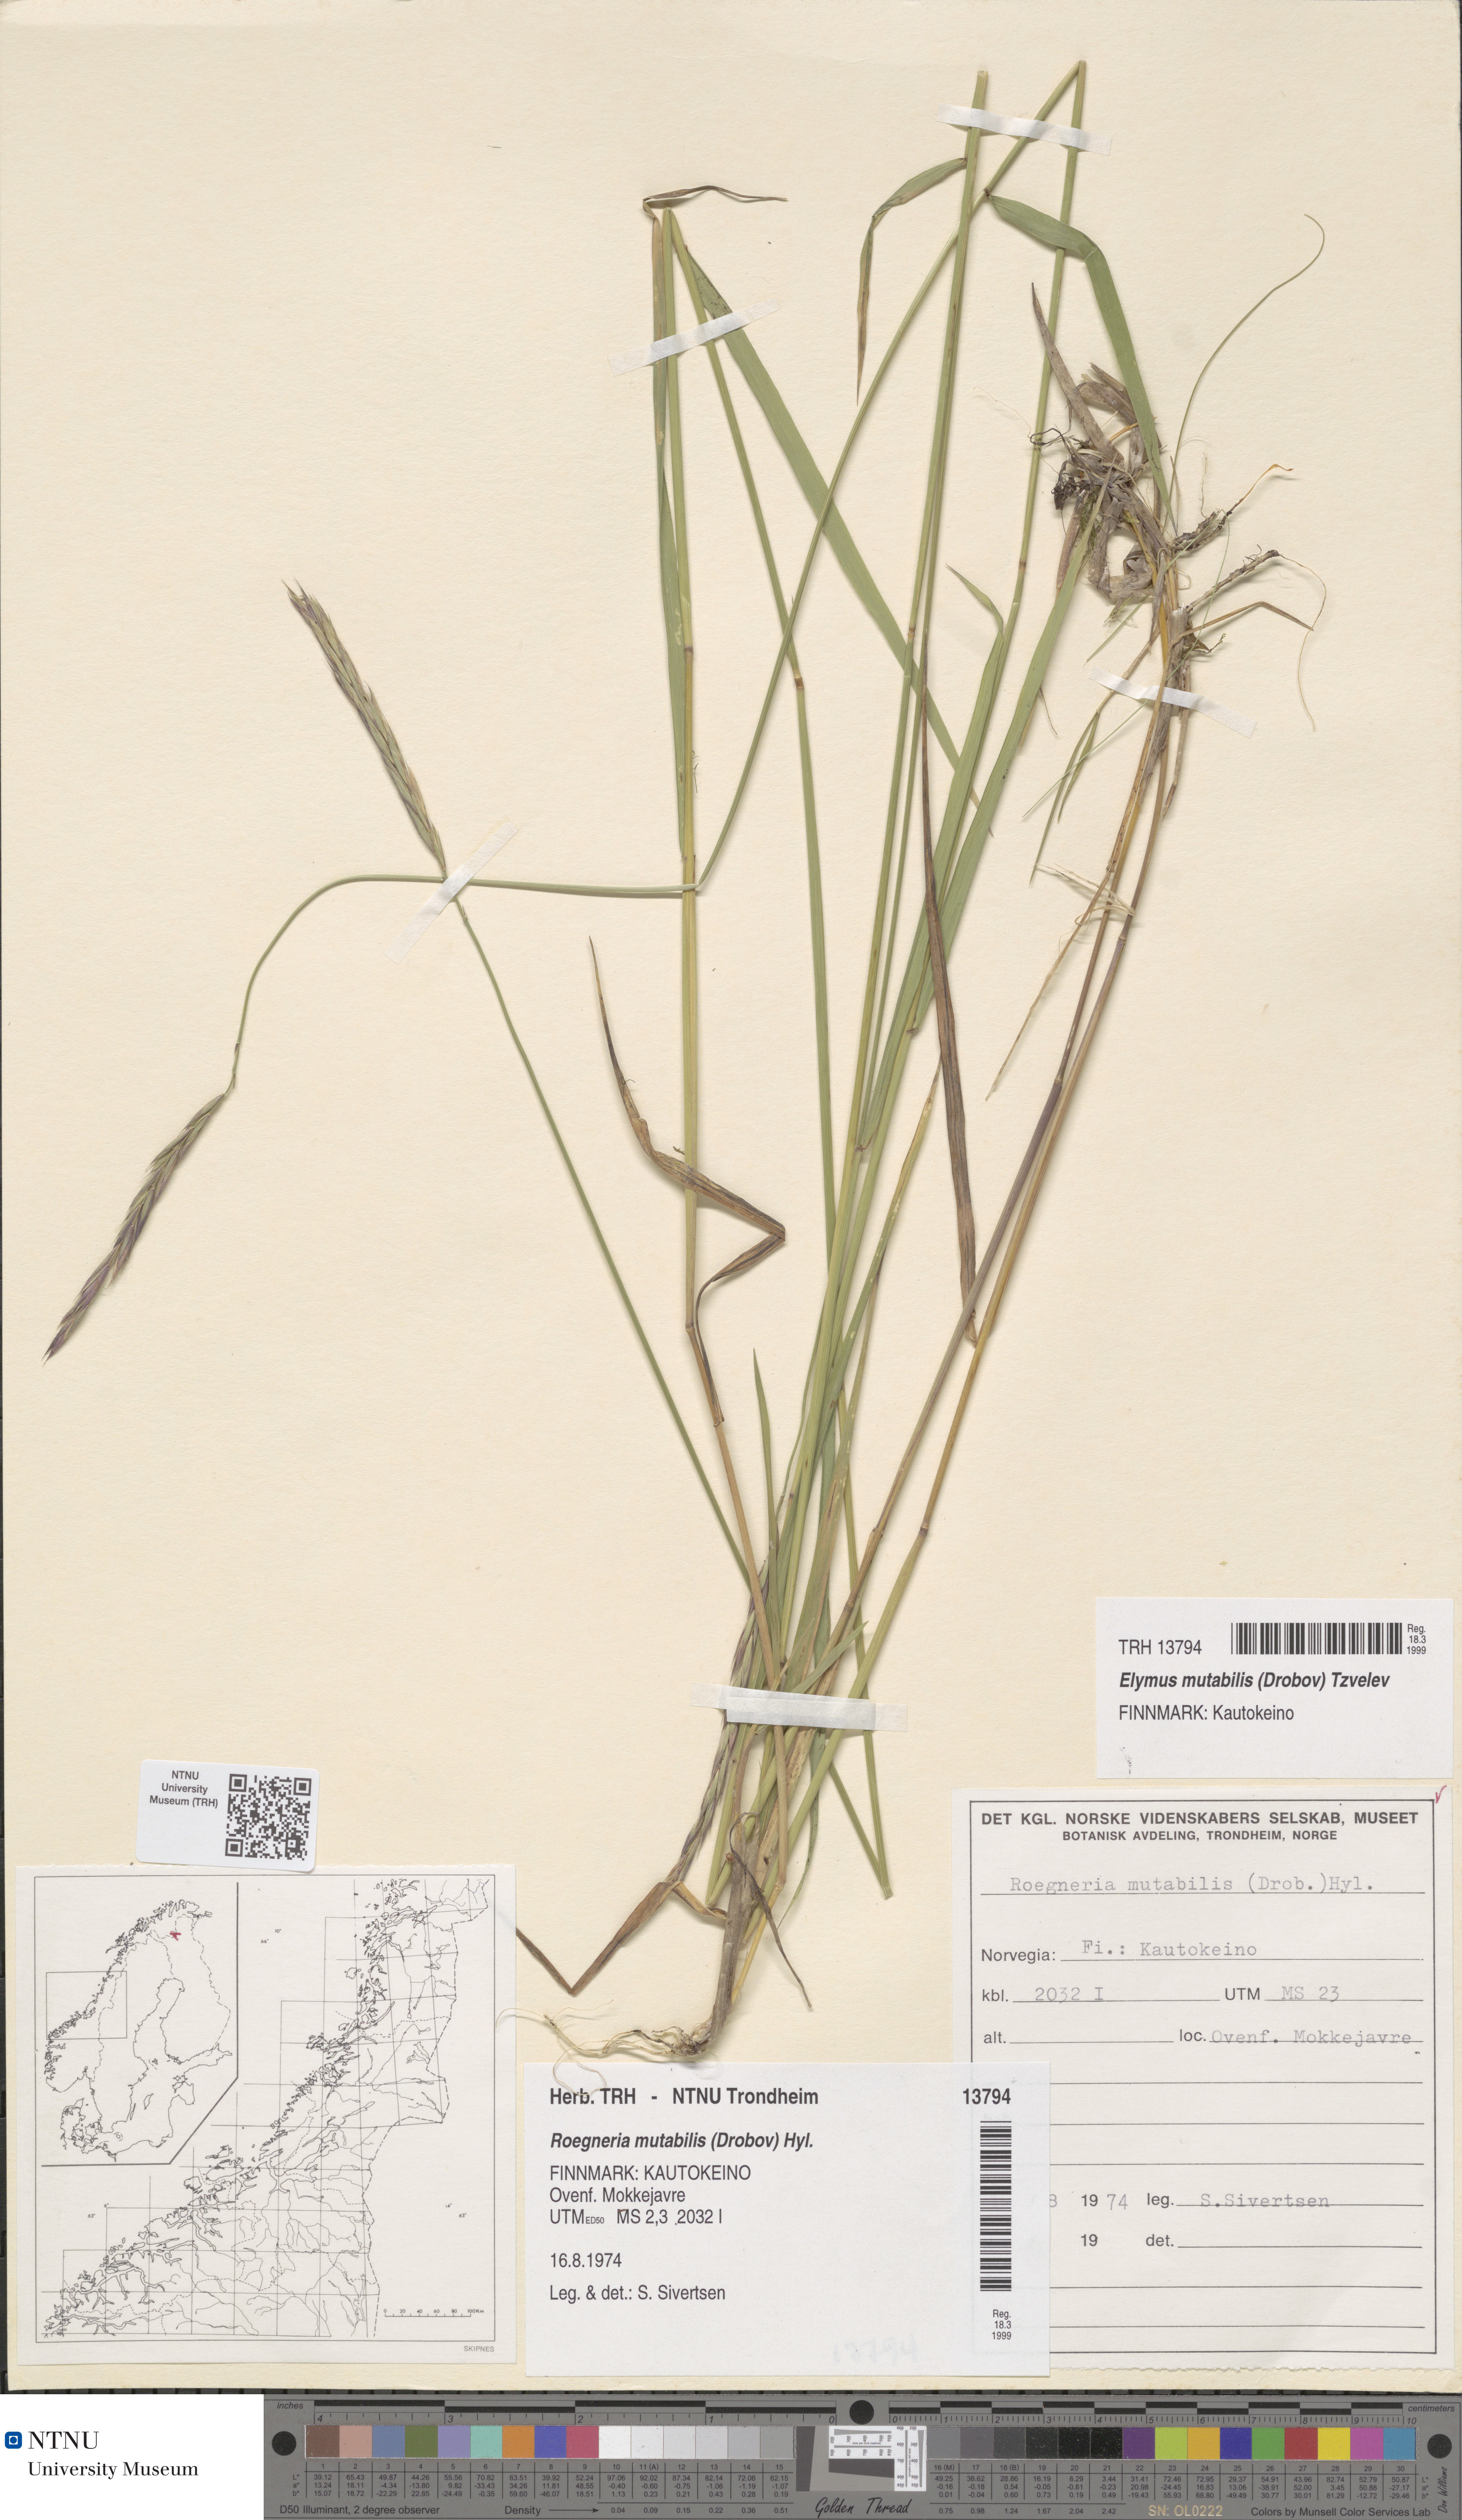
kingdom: Plantae
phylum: Tracheophyta
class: Liliopsida
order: Poales
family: Poaceae
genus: Elymus
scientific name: Elymus mutabilis
